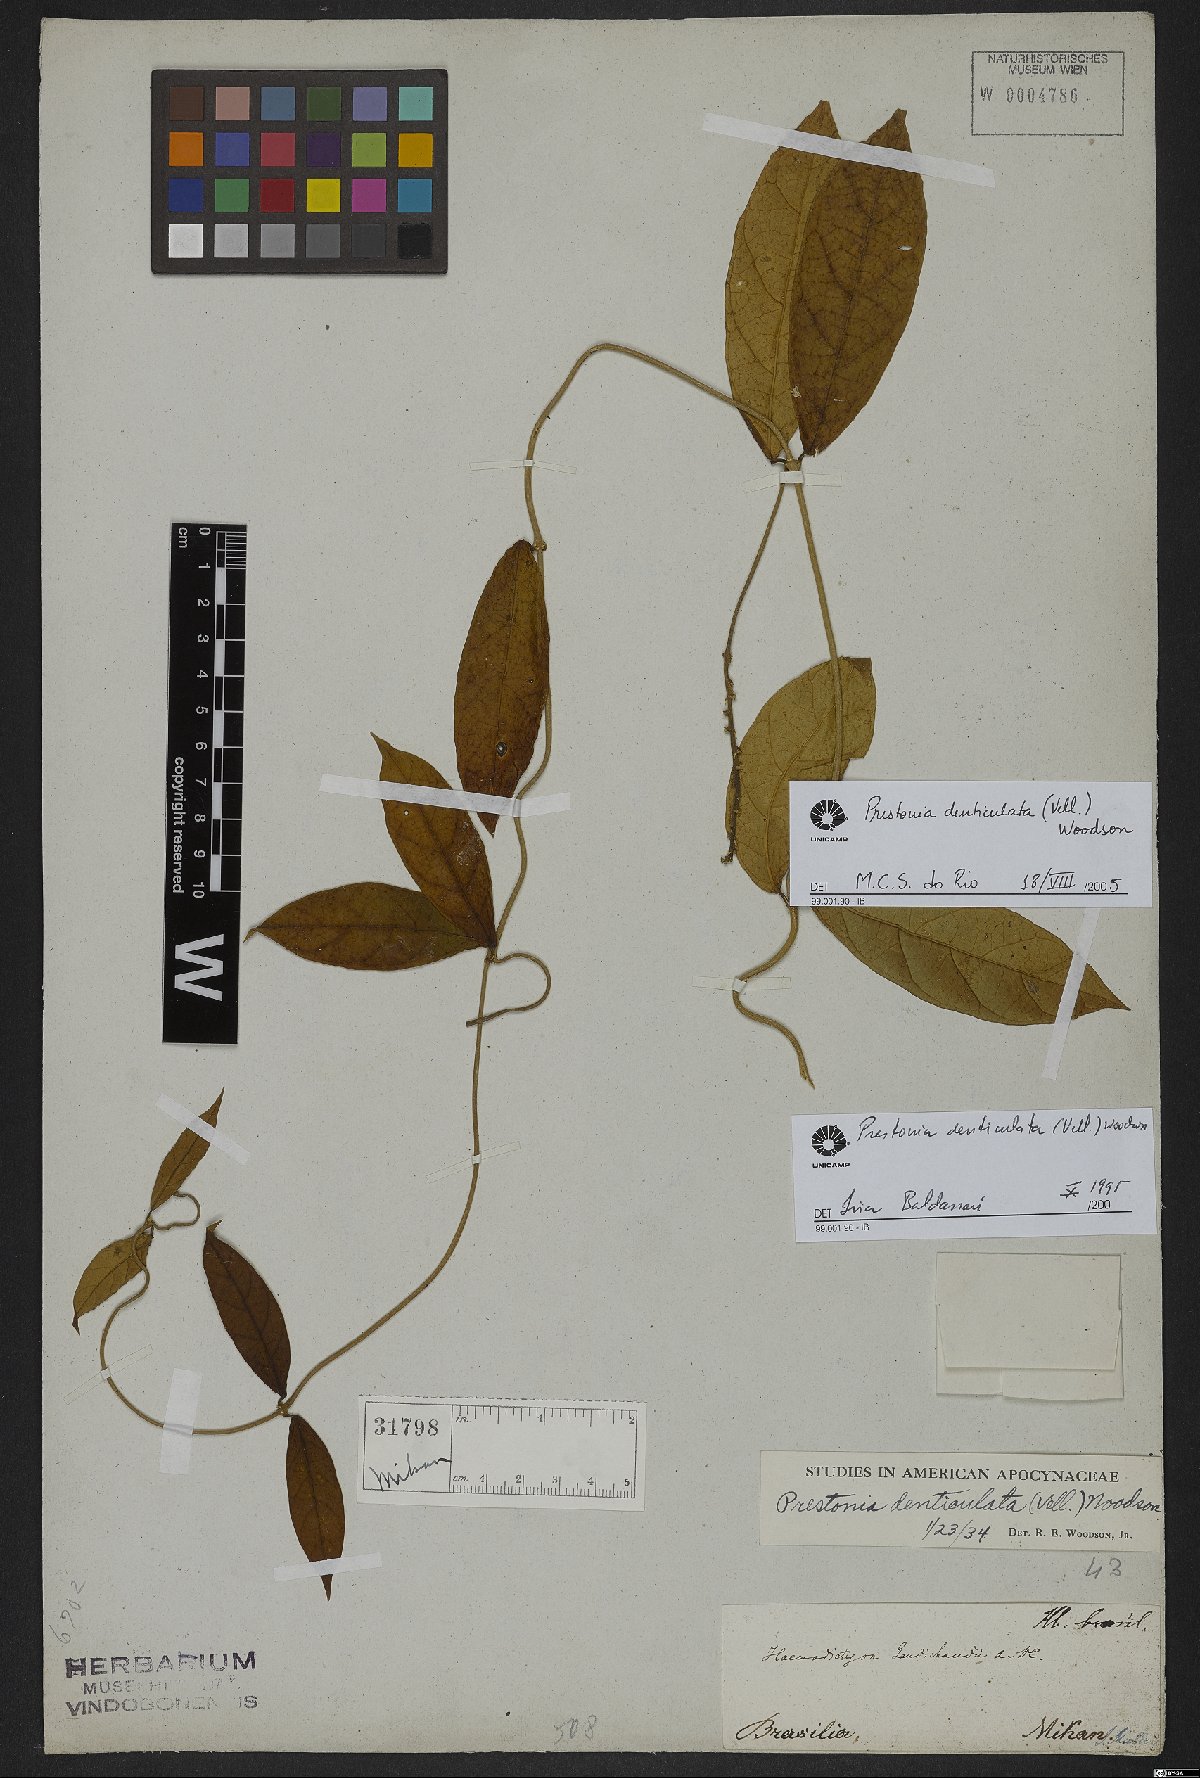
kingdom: Plantae
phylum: Tracheophyta
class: Magnoliopsida
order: Gentianales
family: Apocynaceae
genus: Prestonia
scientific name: Prestonia denticulata
